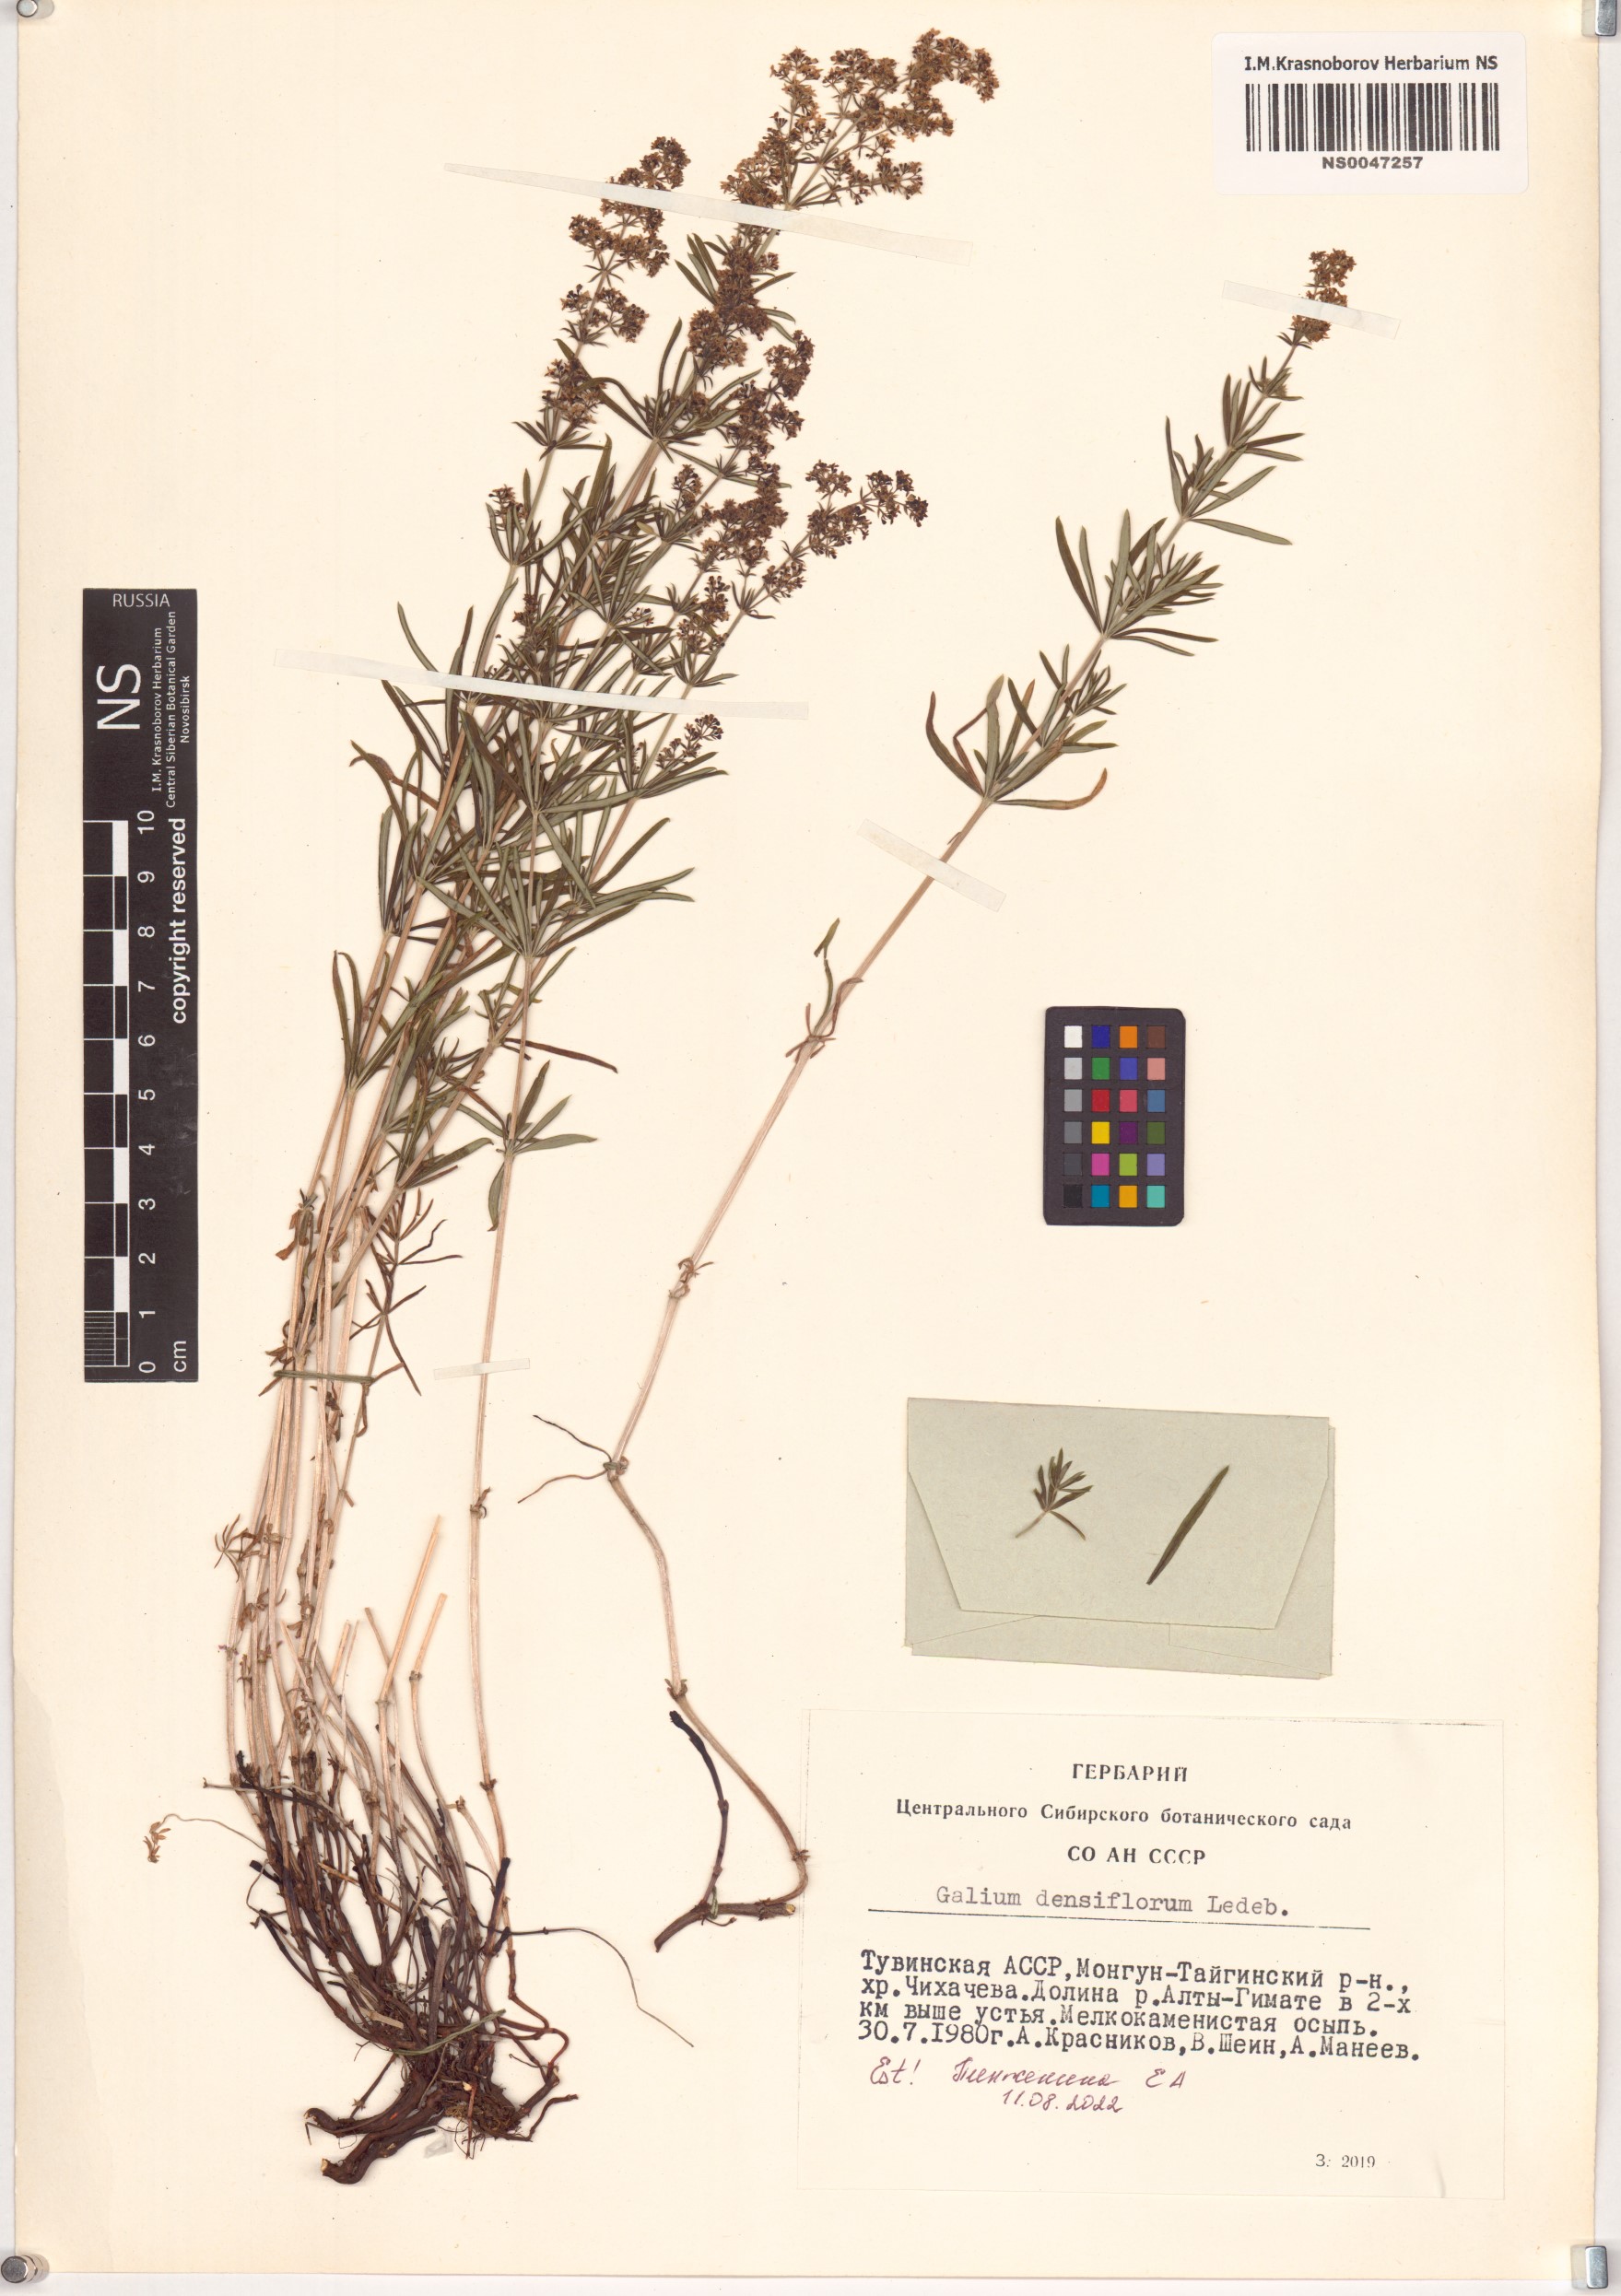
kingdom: Plantae
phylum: Tracheophyta
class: Magnoliopsida
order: Gentianales
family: Rubiaceae
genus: Galium
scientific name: Galium densiflorum
